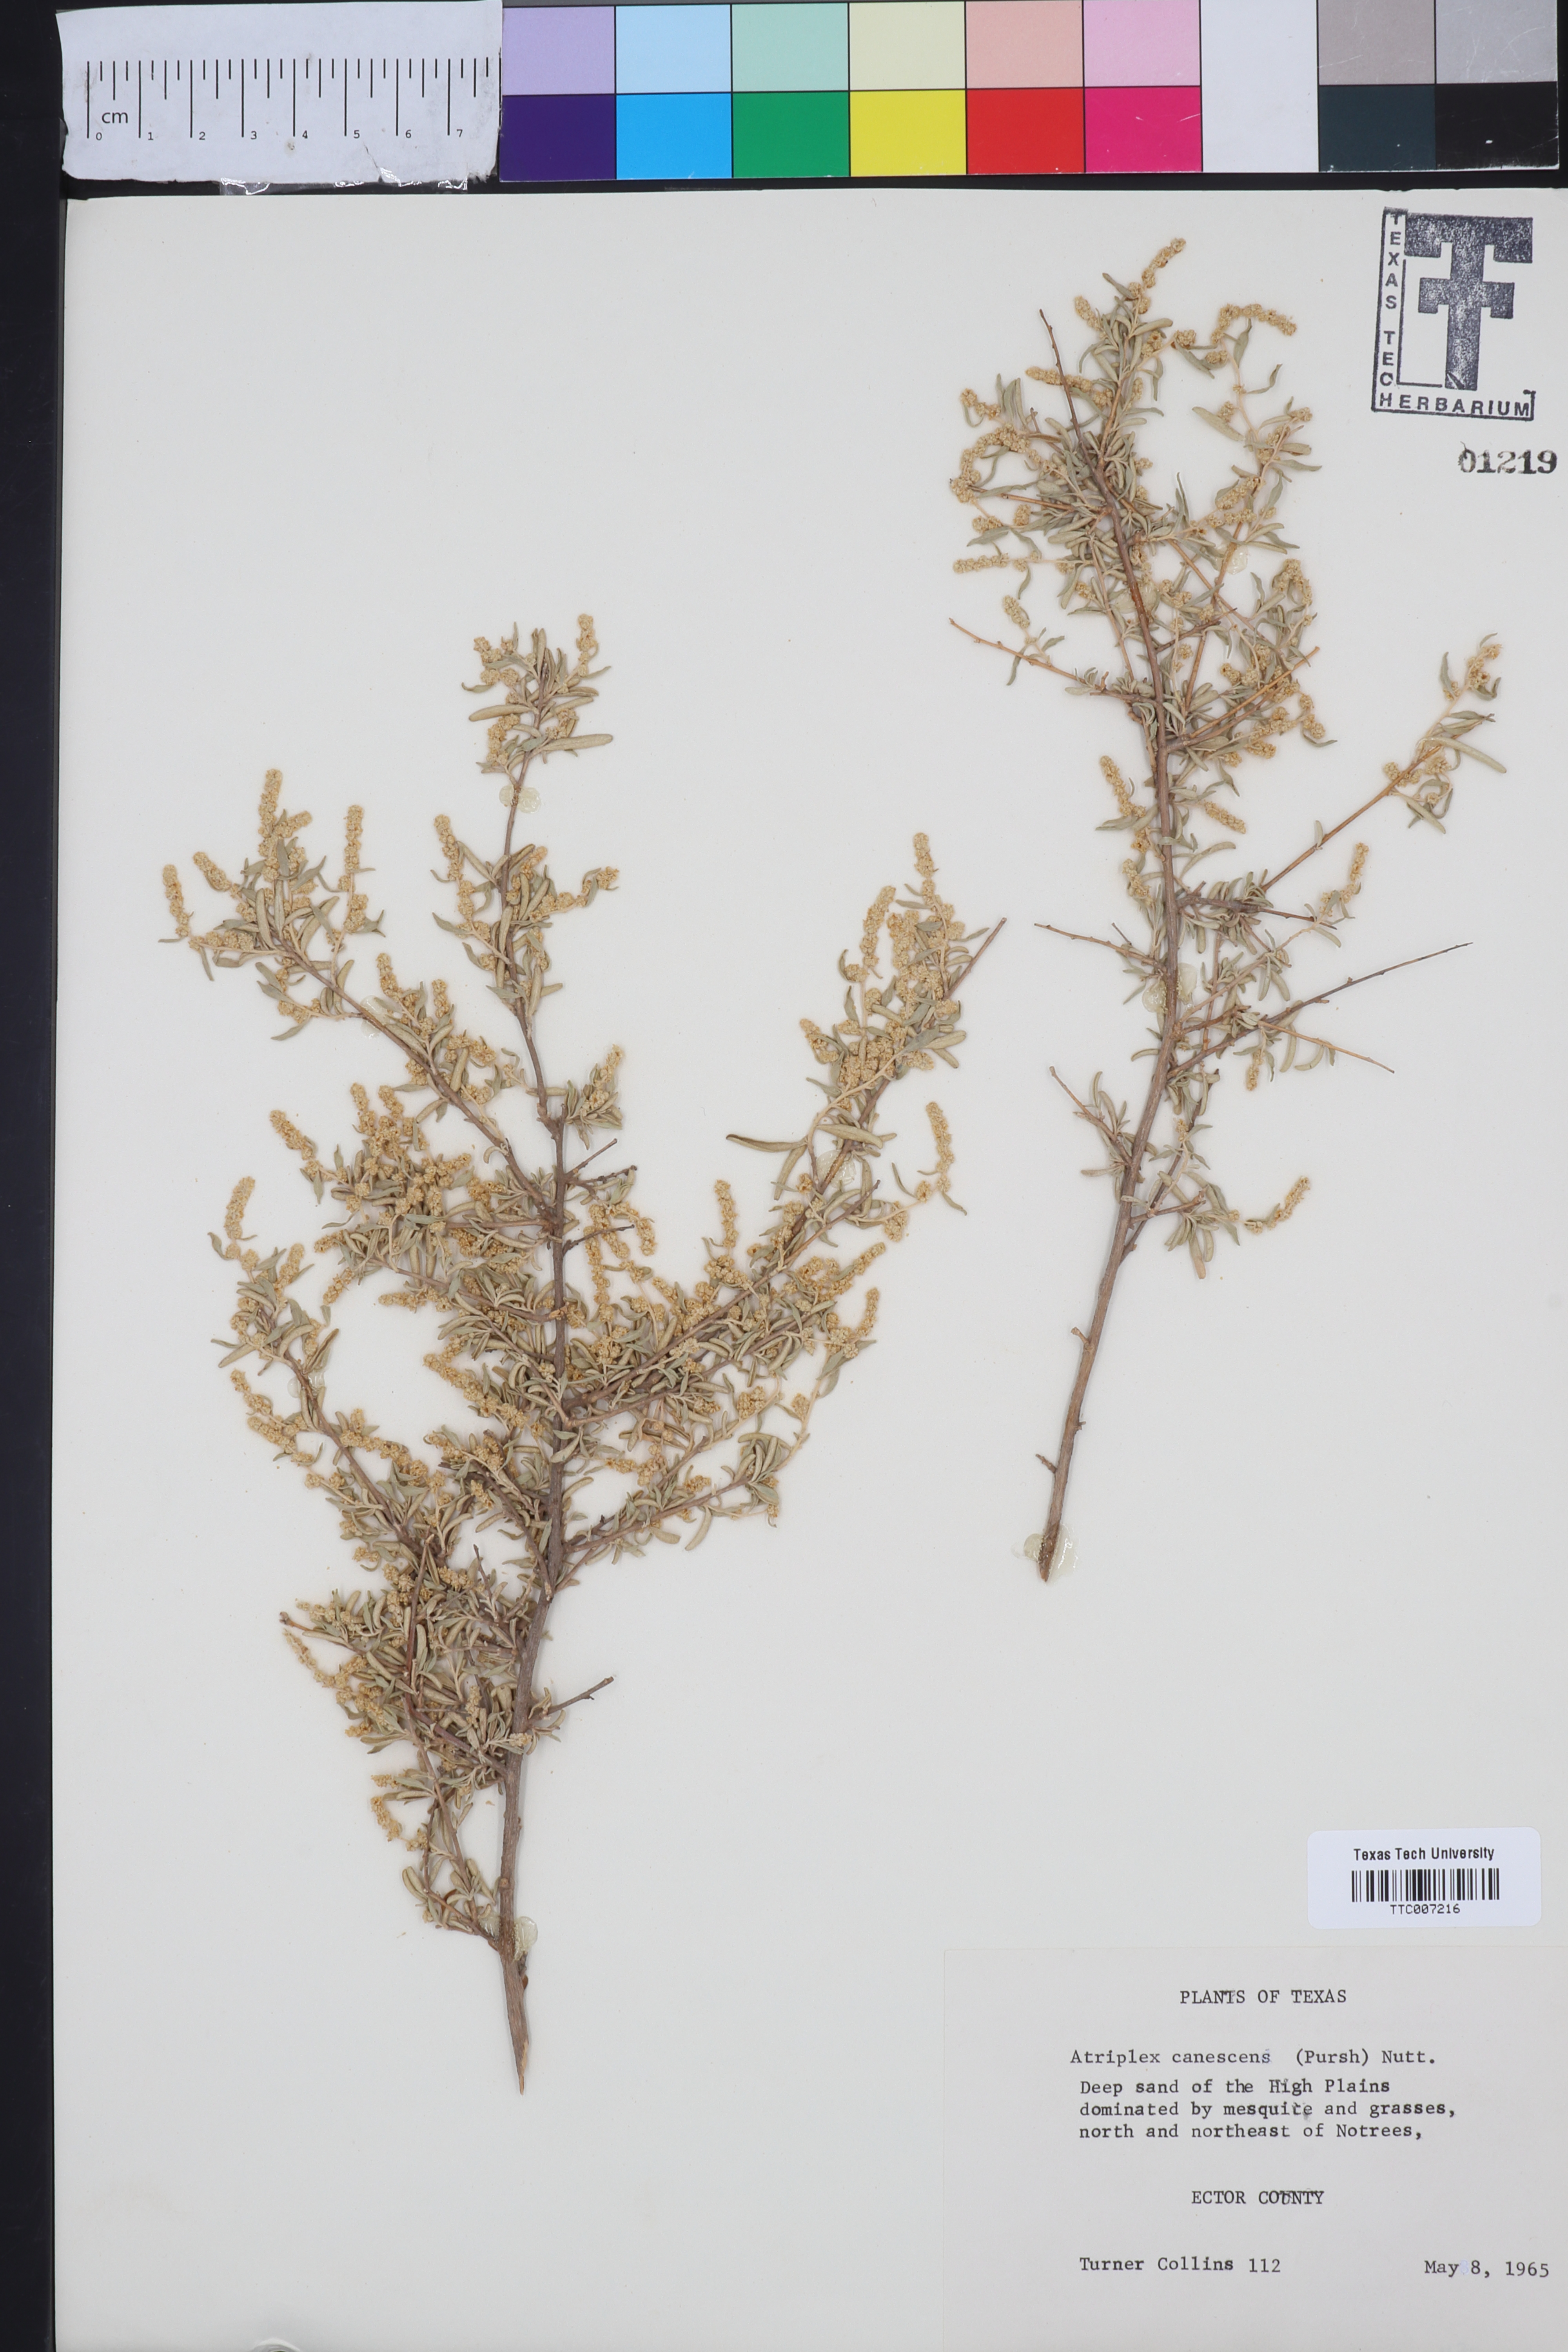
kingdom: Plantae
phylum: Tracheophyta
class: Magnoliopsida
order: Caryophyllales
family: Amaranthaceae
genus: Atriplex
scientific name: Atriplex canescens
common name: Four-wing saltbush
